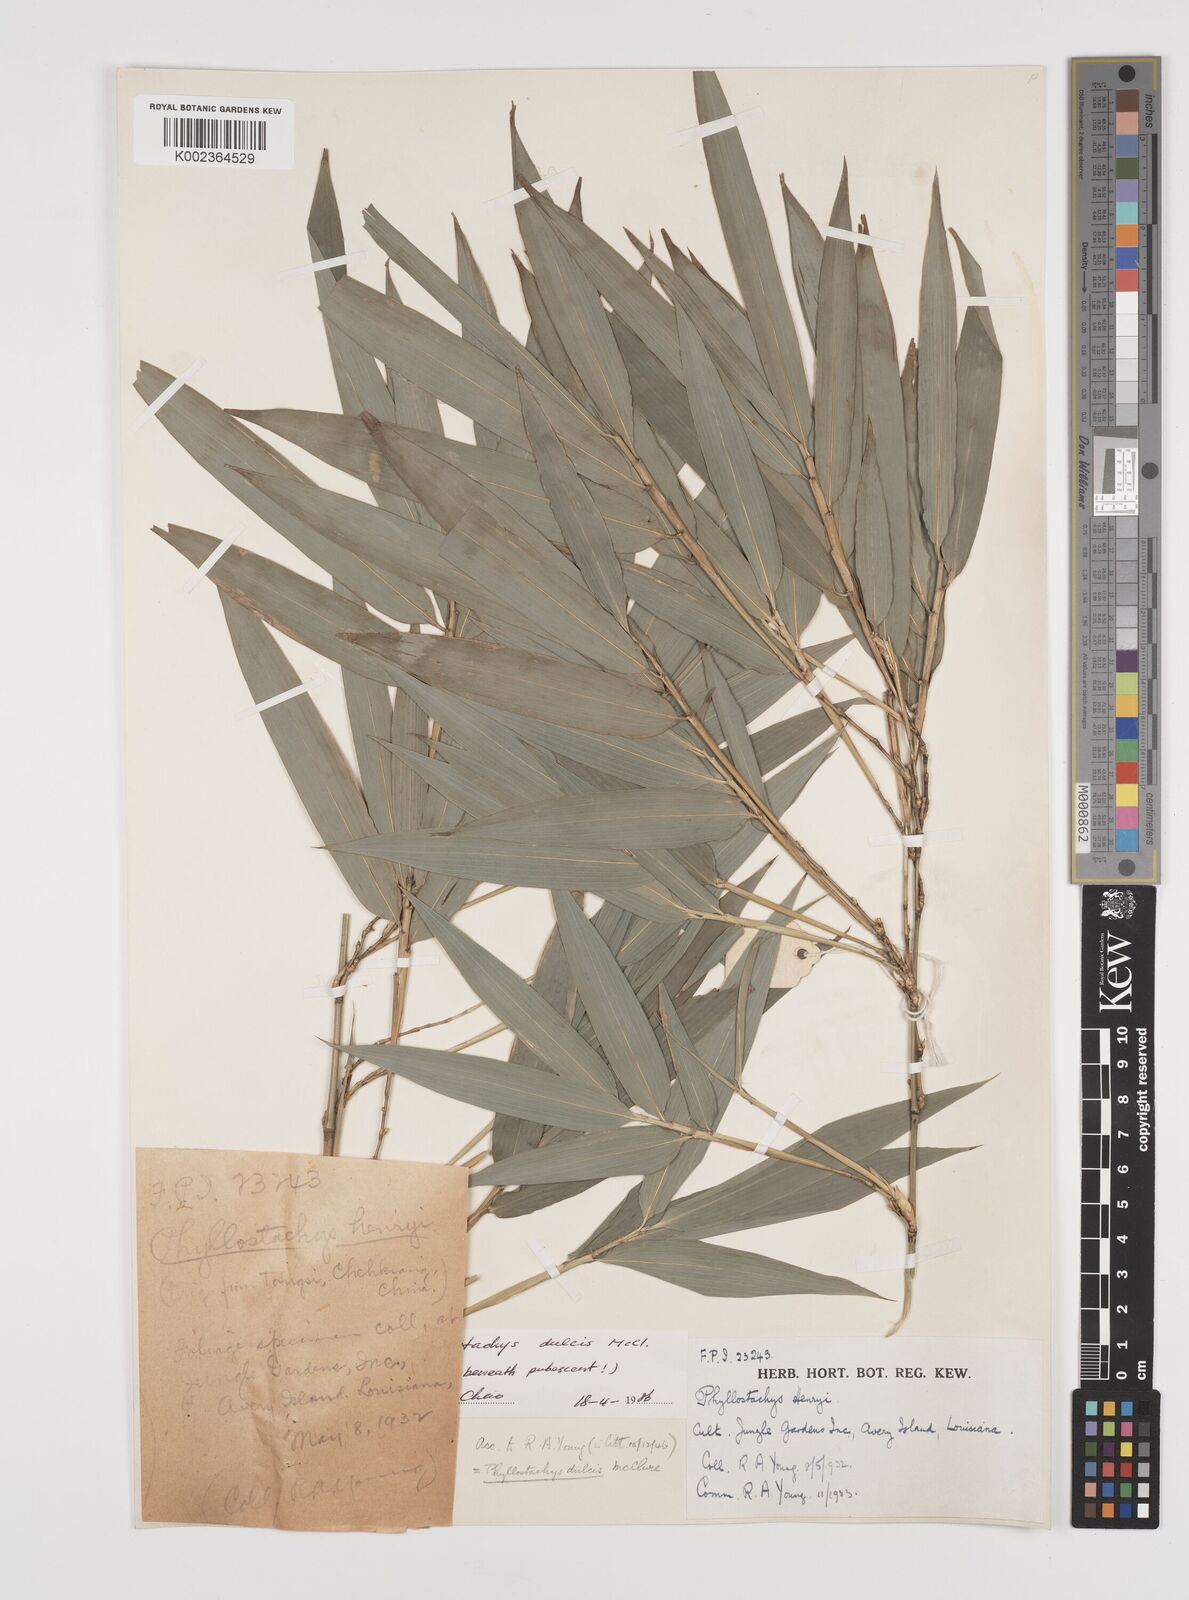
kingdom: Plantae
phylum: Tracheophyta
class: Liliopsida
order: Poales
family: Poaceae
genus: Phyllostachys
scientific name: Phyllostachys dulcis
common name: Sweetshoot bamboo
